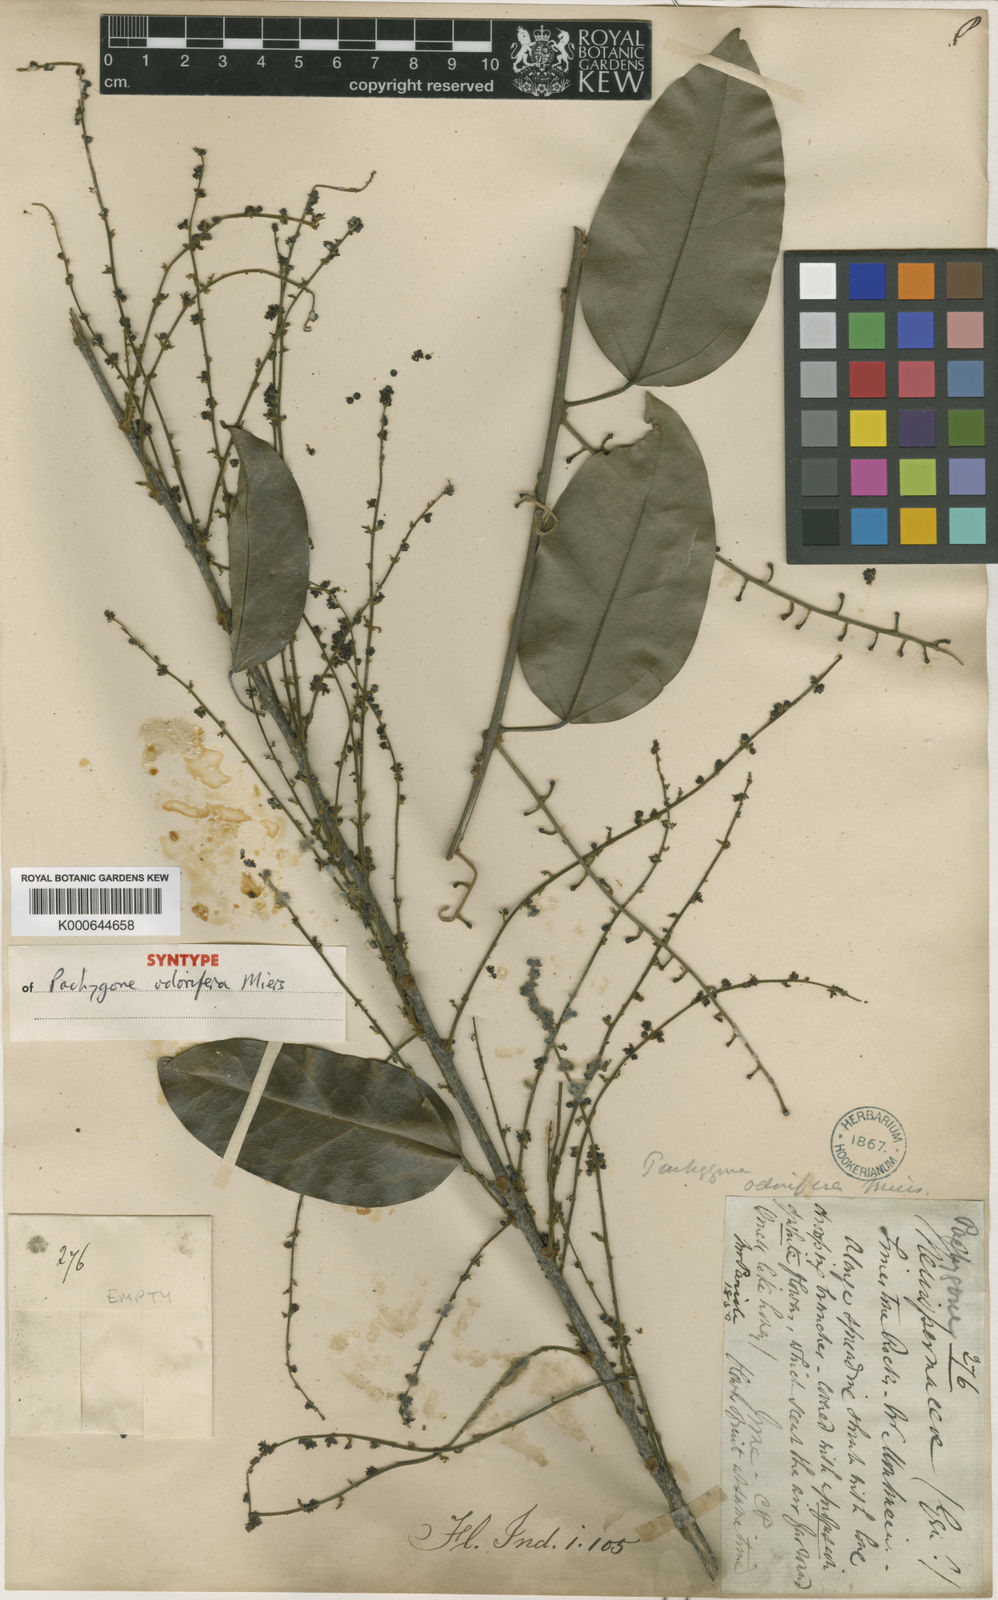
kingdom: Plantae
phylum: Tracheophyta
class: Magnoliopsida
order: Ranunculales
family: Menispermaceae
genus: Pachygone
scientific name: Pachygone odorifera
